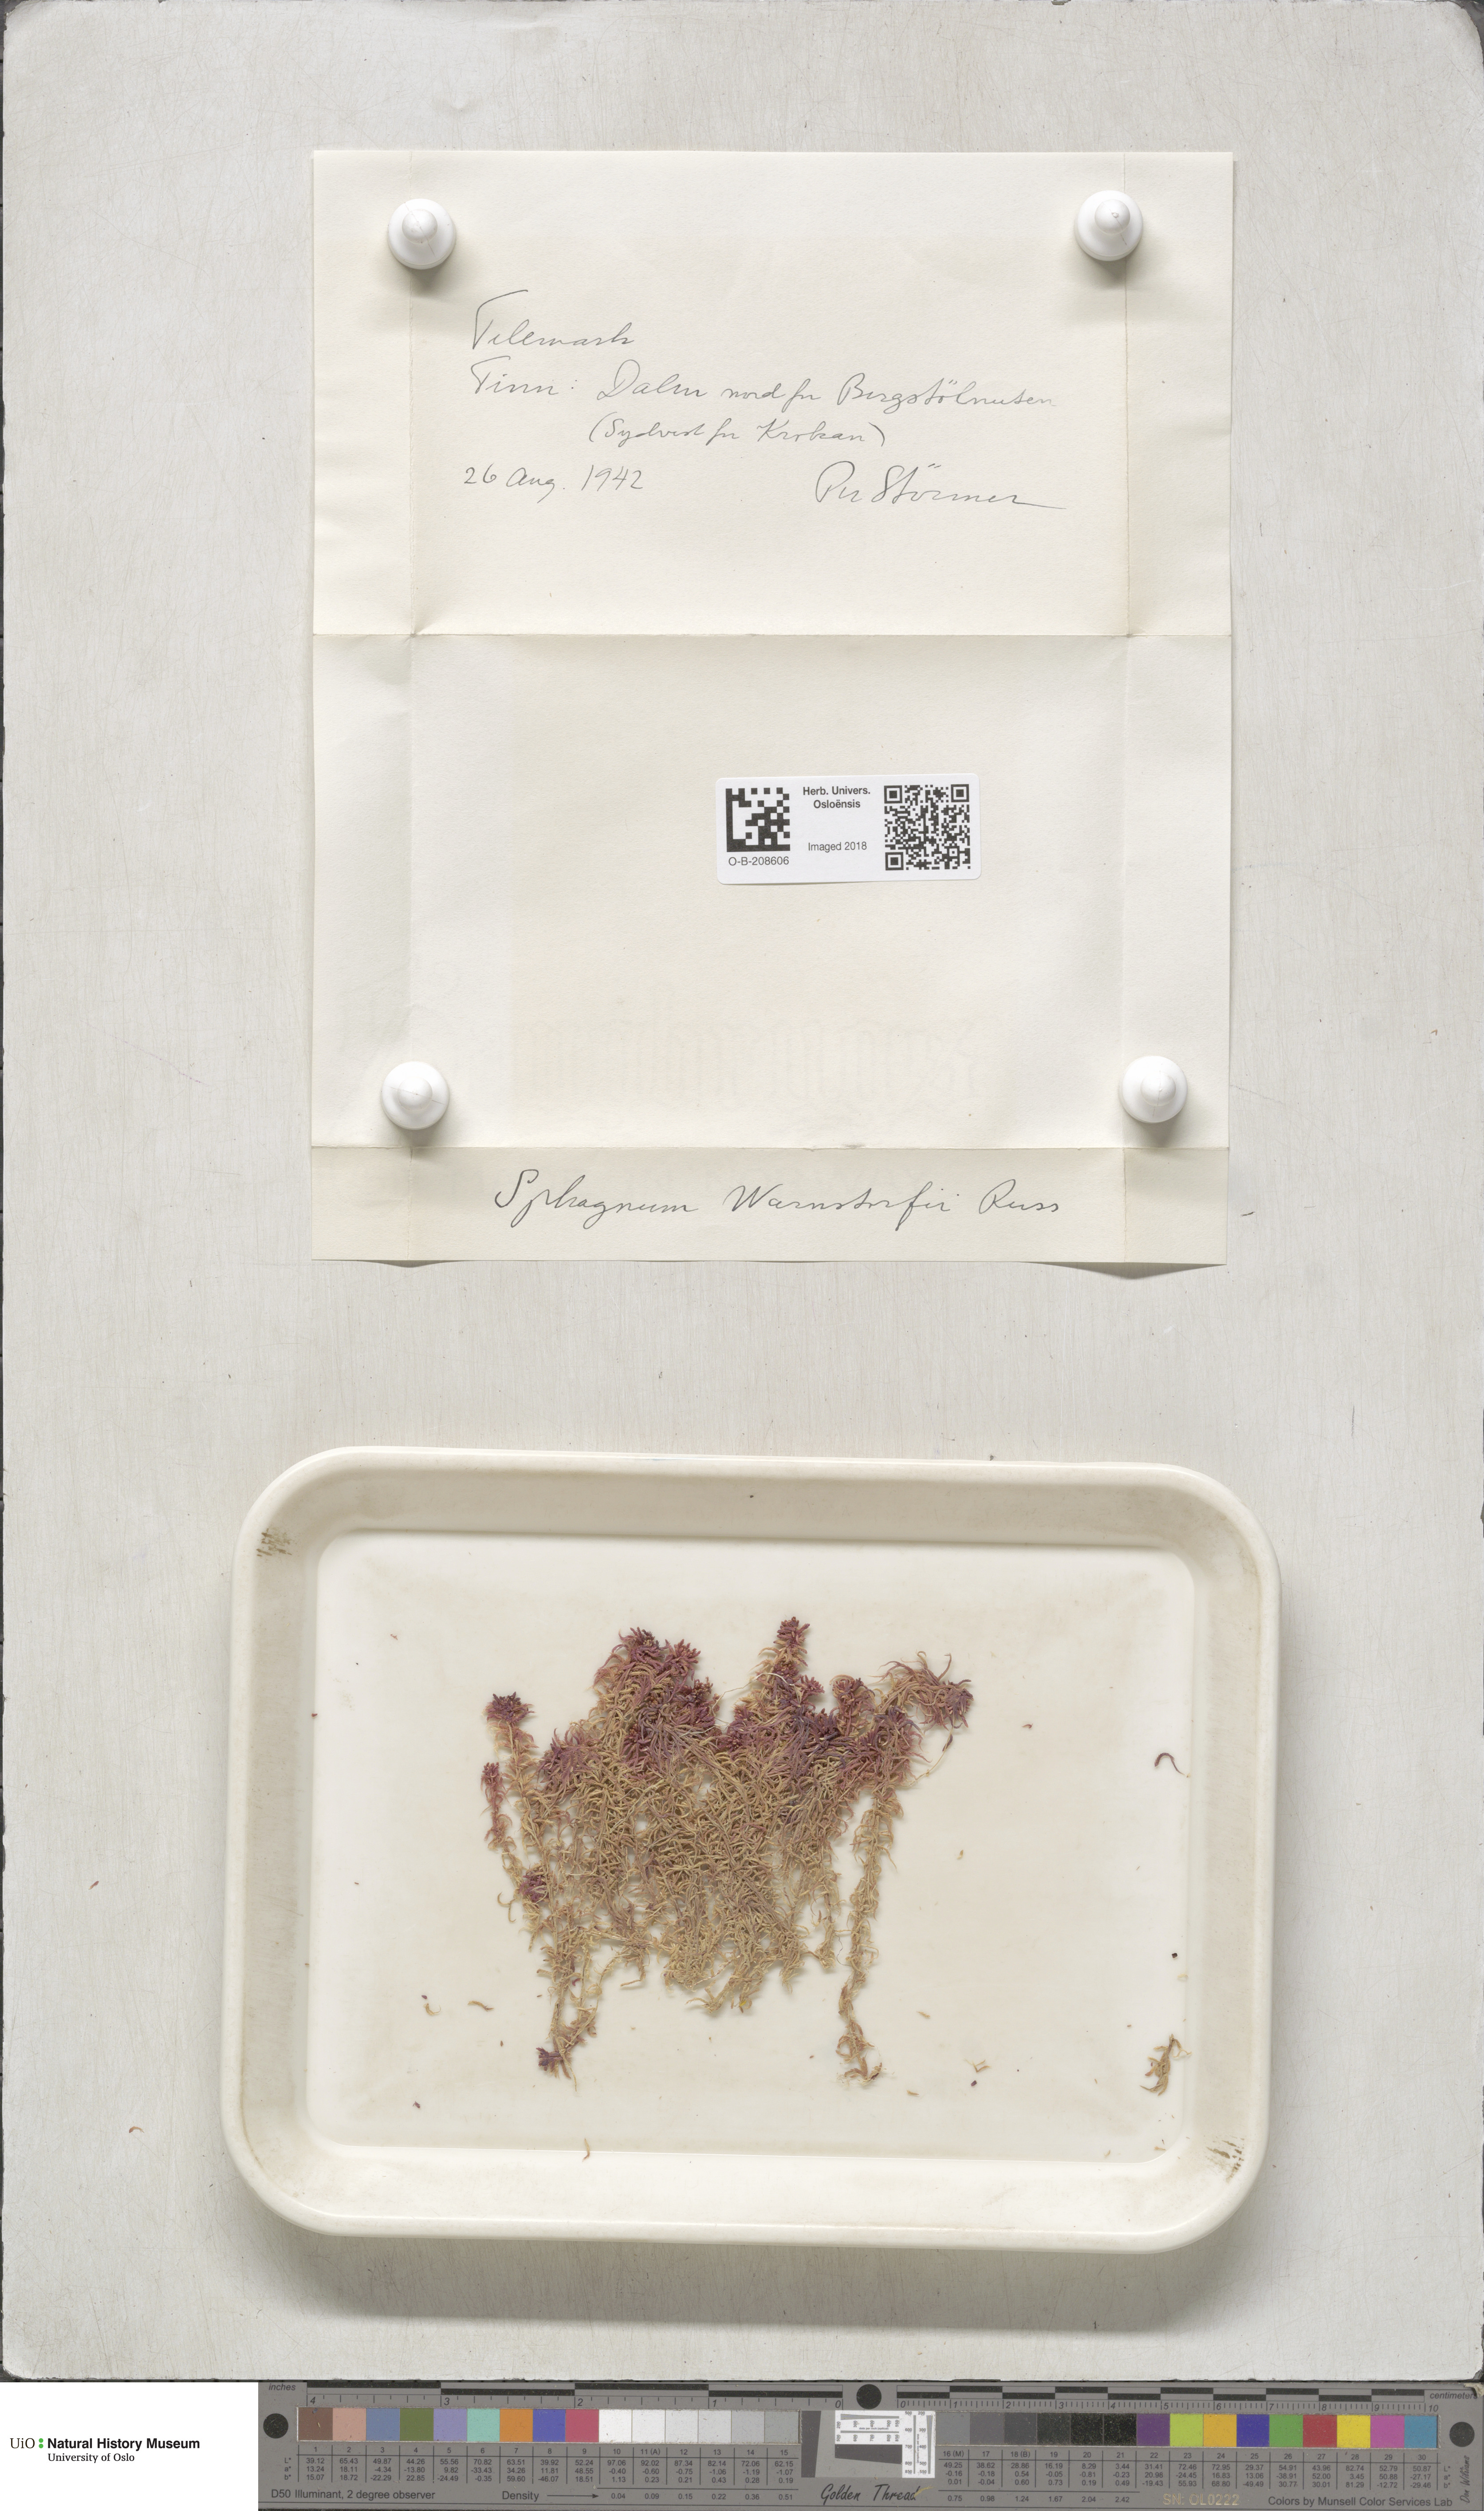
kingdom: Plantae
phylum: Bryophyta
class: Sphagnopsida
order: Sphagnales
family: Sphagnaceae
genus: Sphagnum
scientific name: Sphagnum warnstorfii
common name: Warnstorf's peat moss
